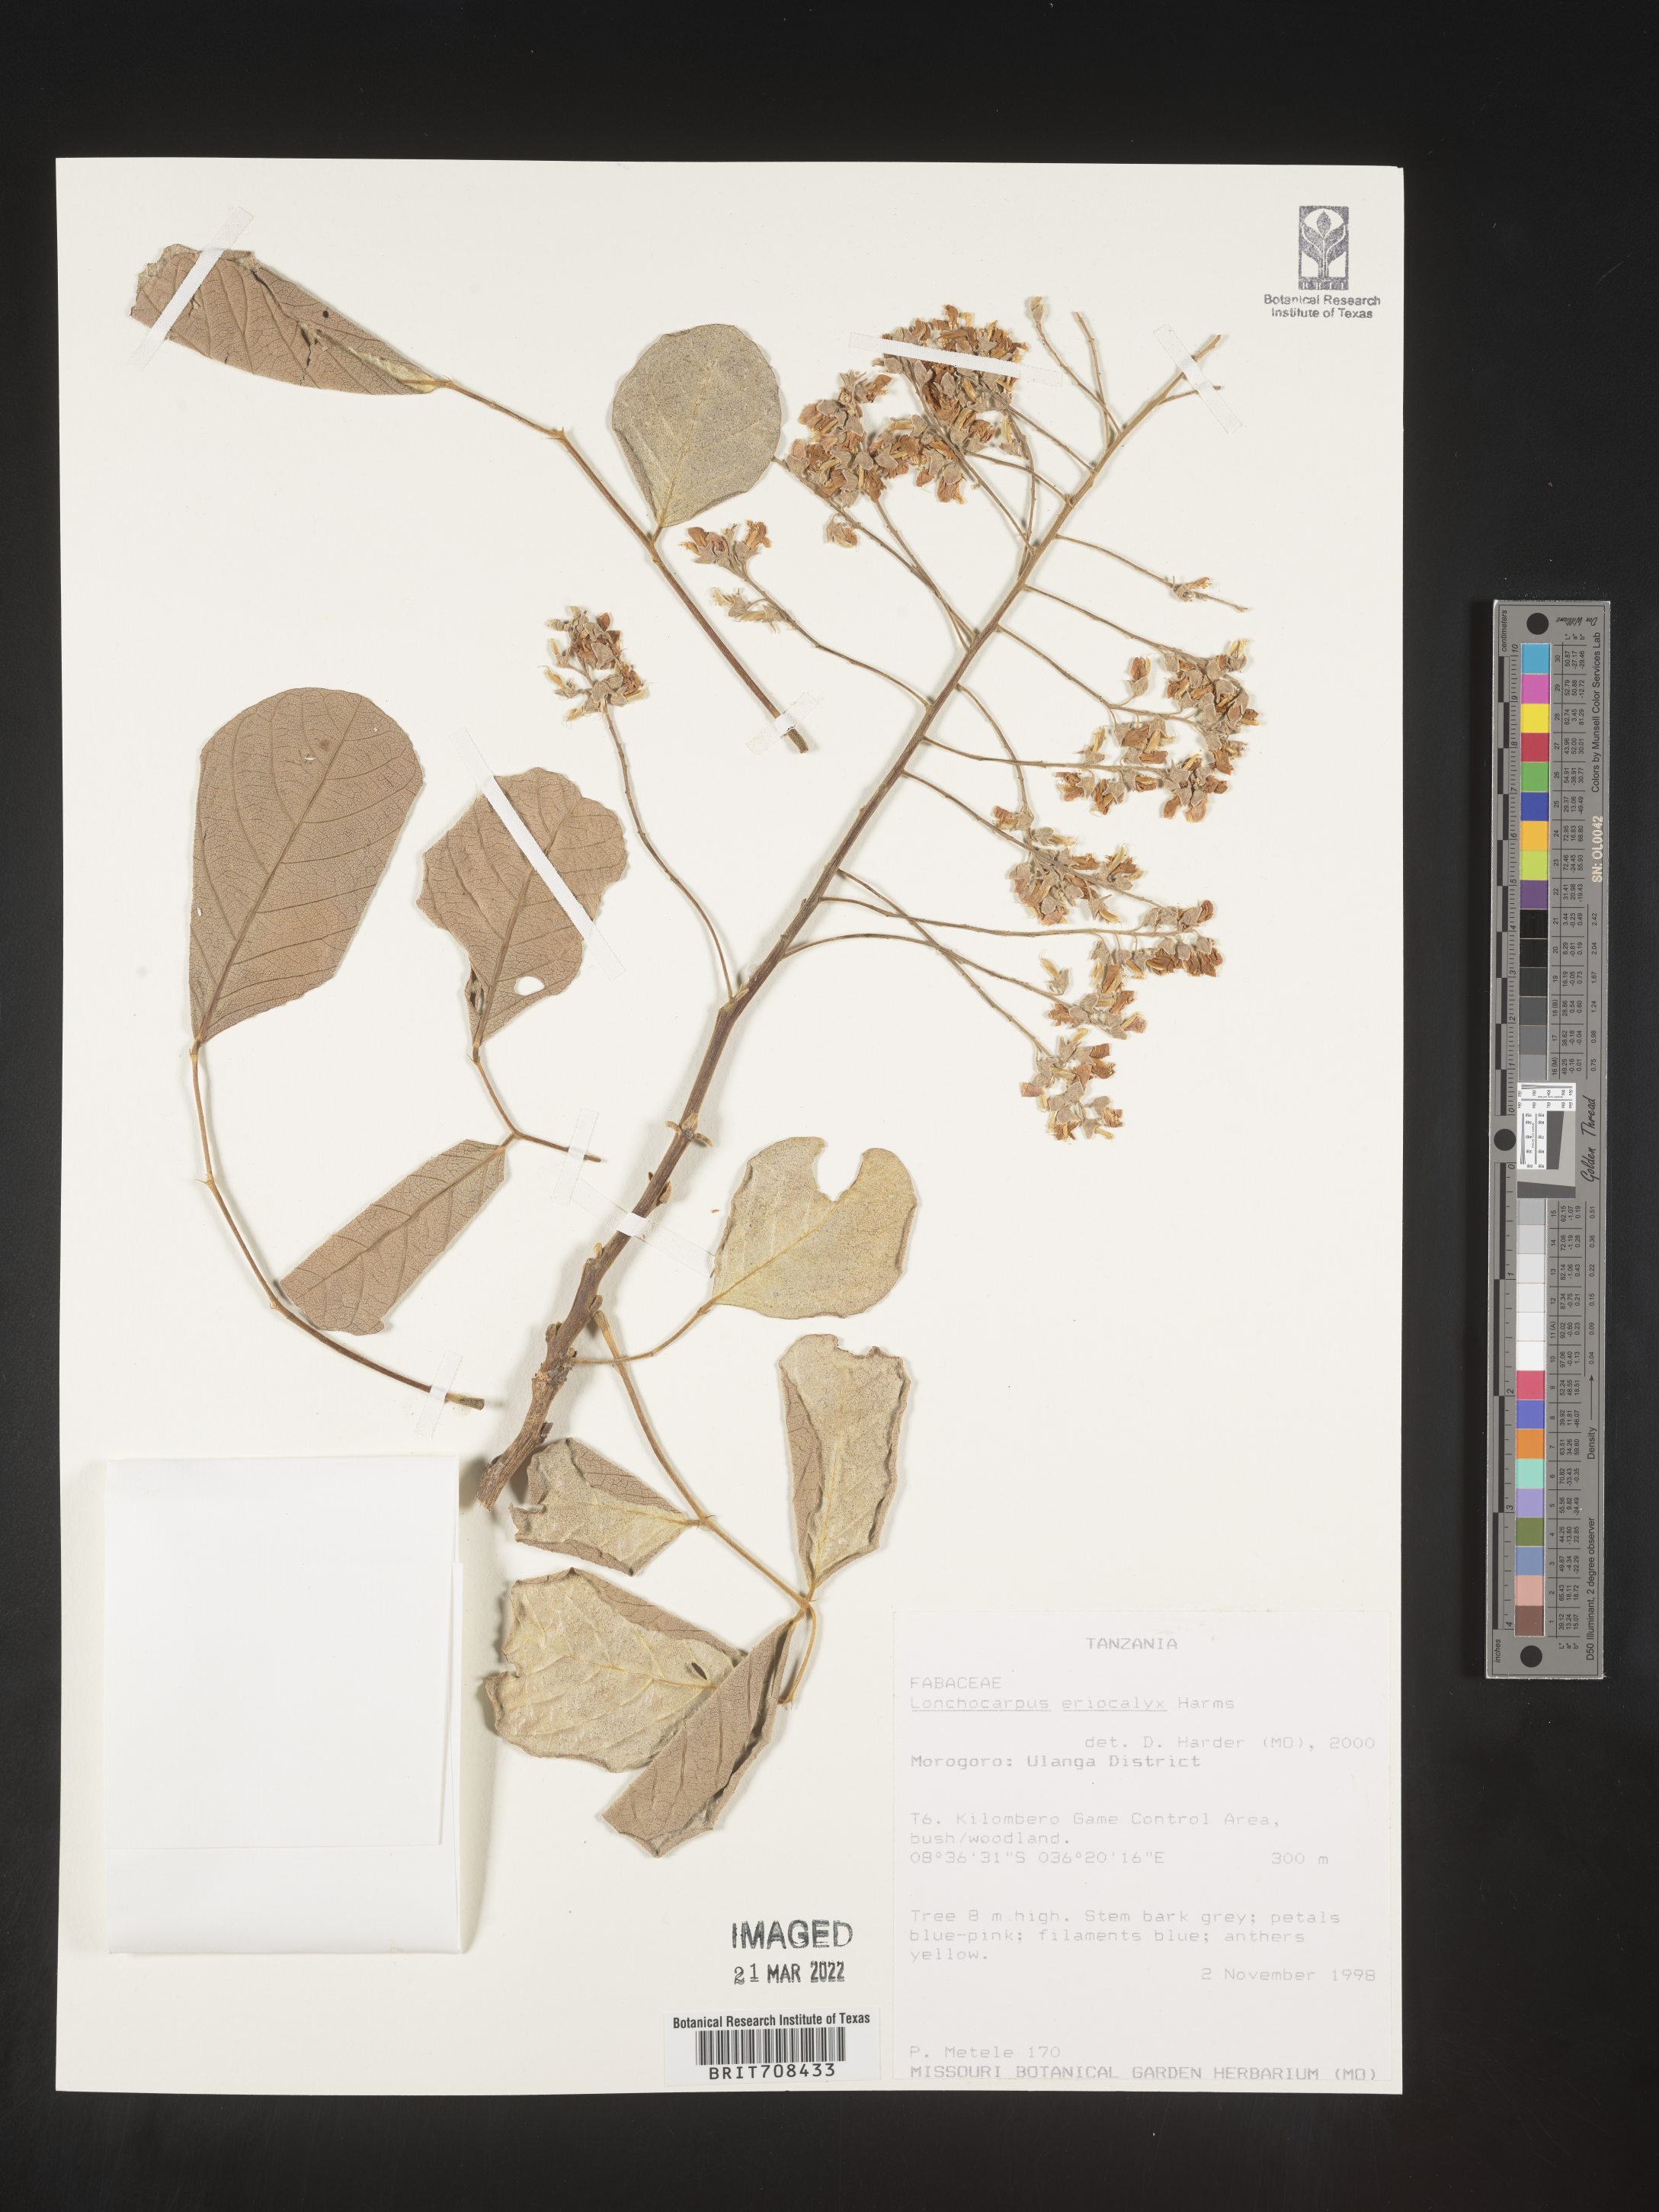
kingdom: Plantae
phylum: Tracheophyta
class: Magnoliopsida
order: Fabales
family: Fabaceae
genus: Lonchocarpus
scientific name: Lonchocarpus
